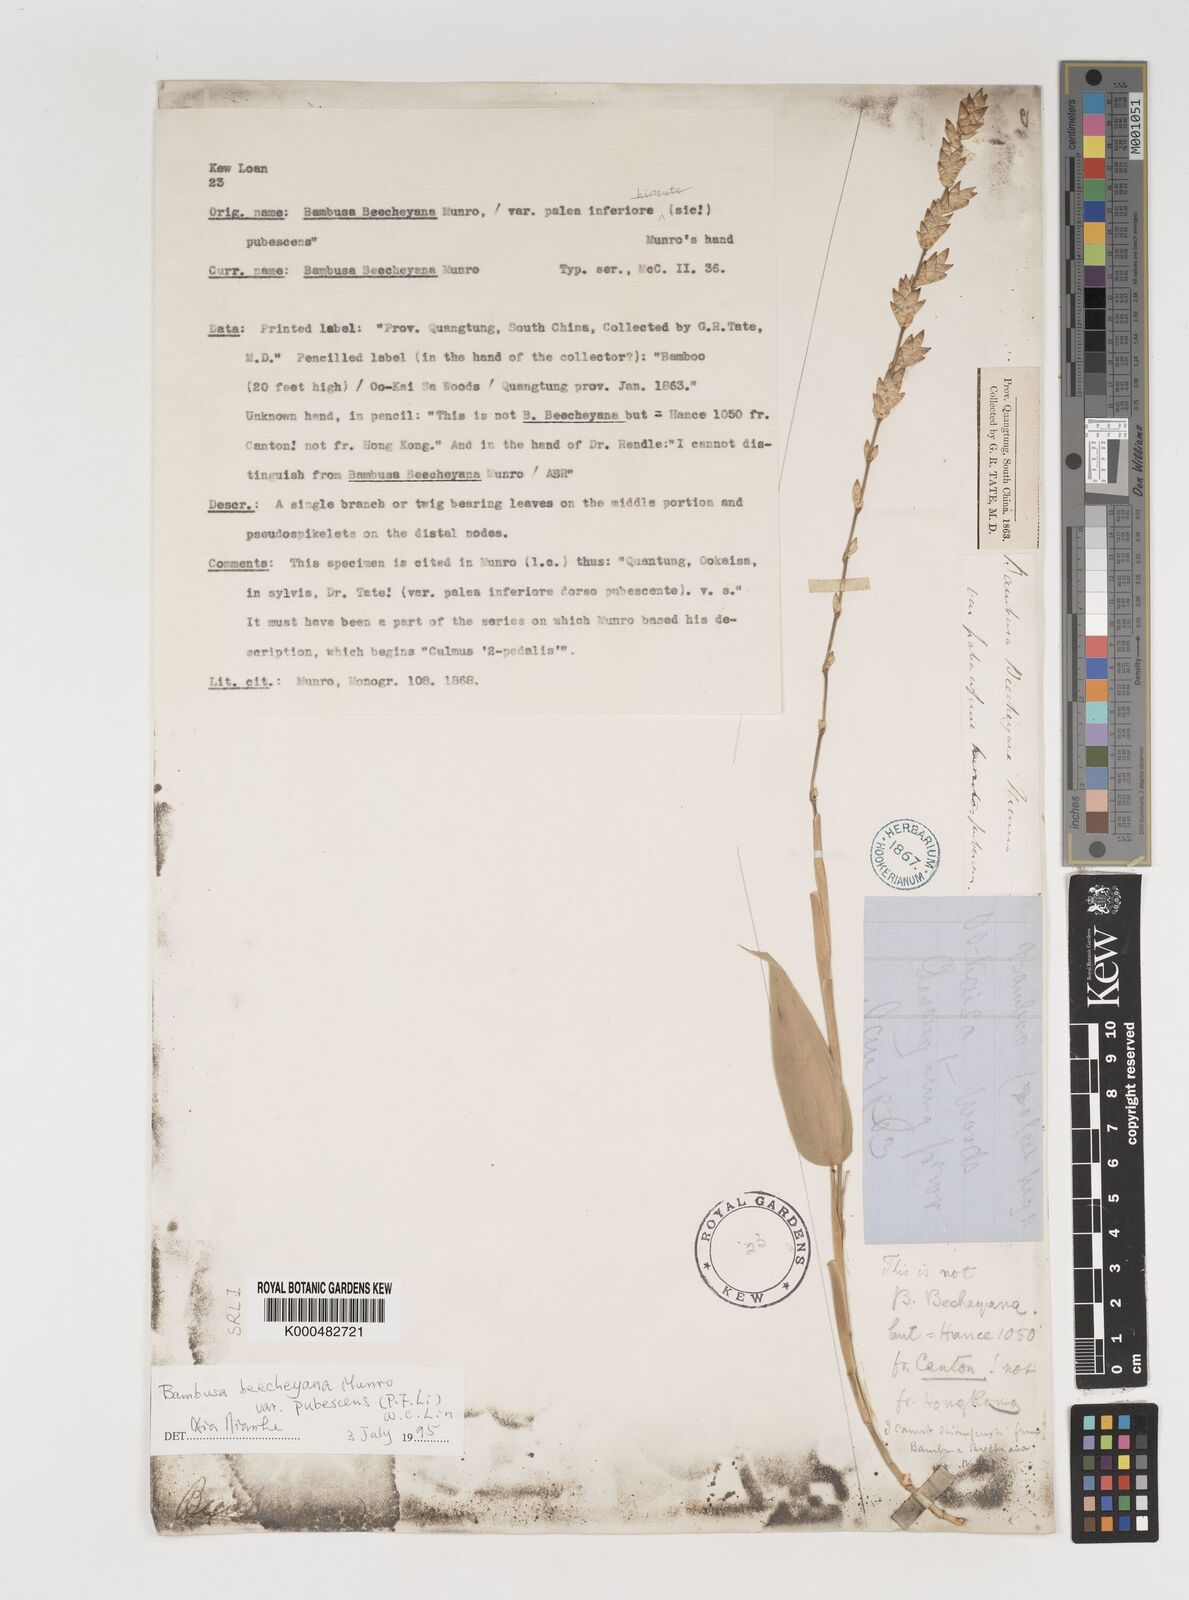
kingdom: Plantae
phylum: Tracheophyta
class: Liliopsida
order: Poales
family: Poaceae
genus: Bambusa
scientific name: Bambusa
